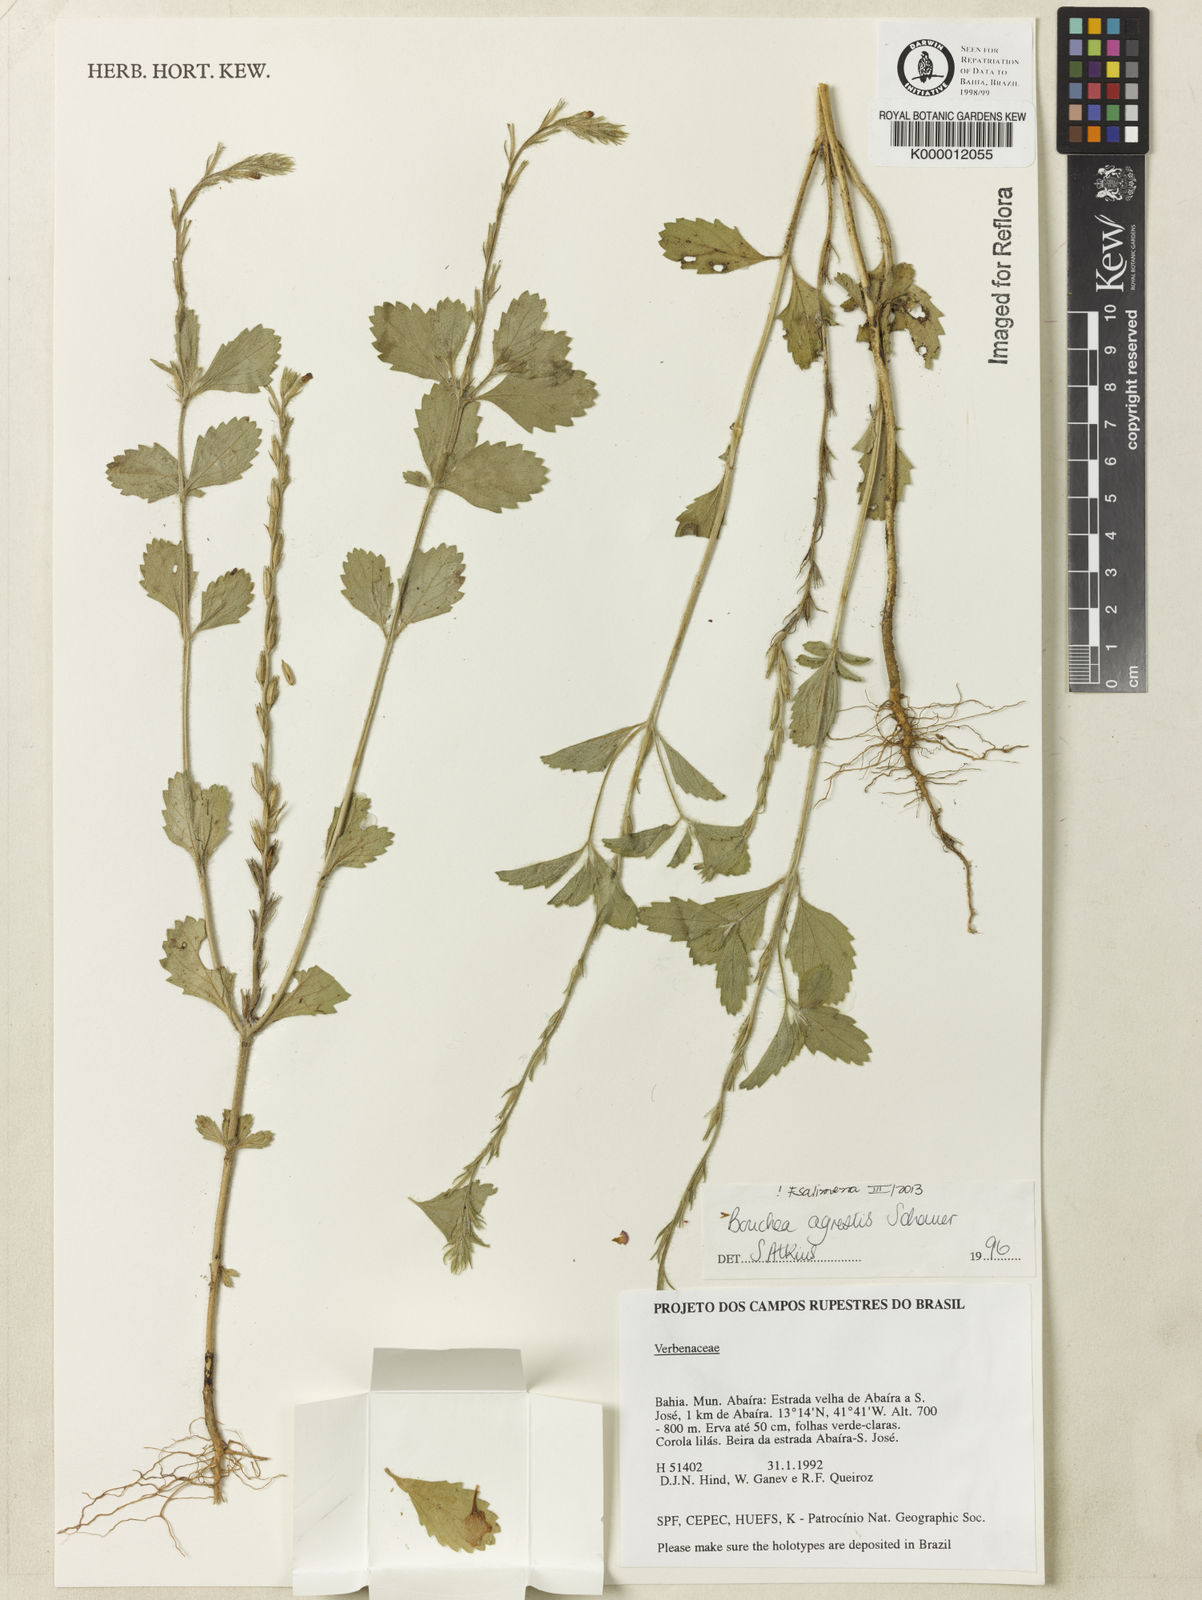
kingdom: Plantae
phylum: Tracheophyta
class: Magnoliopsida
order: Lamiales
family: Verbenaceae
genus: Bouchea
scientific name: Bouchea agrestis
